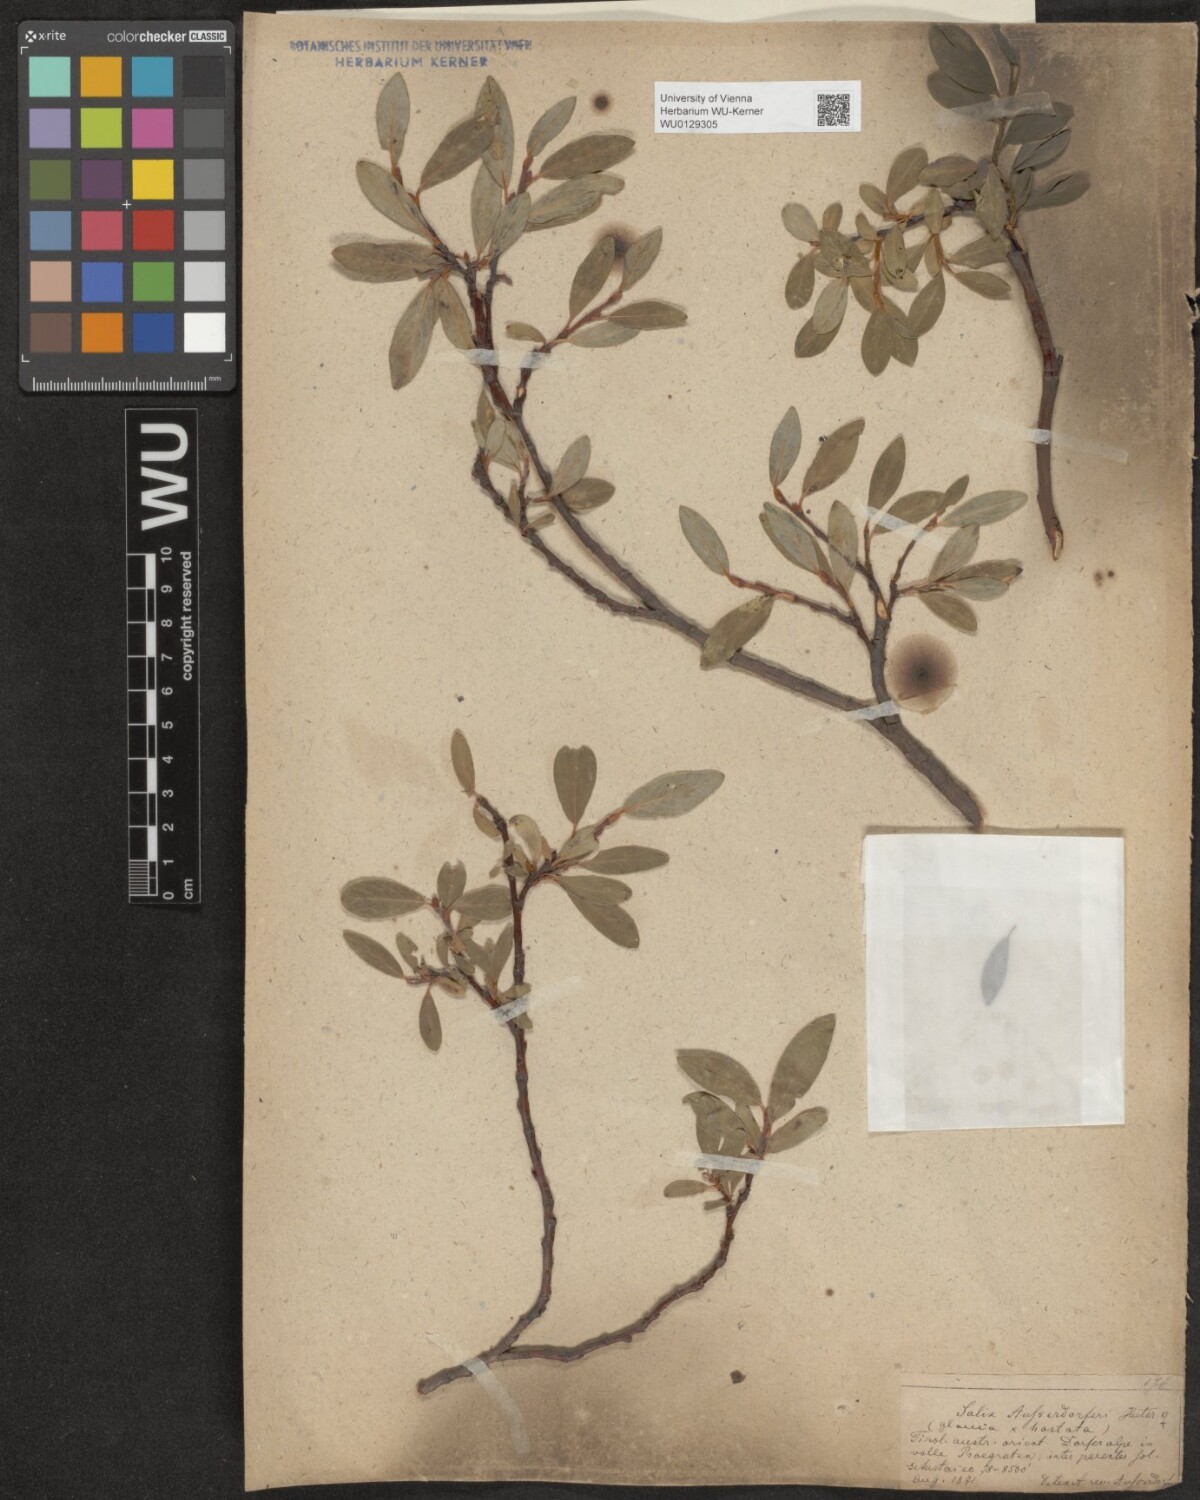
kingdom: Plantae
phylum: Tracheophyta
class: Magnoliopsida
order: Malpighiales
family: Salicaceae
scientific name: Salicaceae
